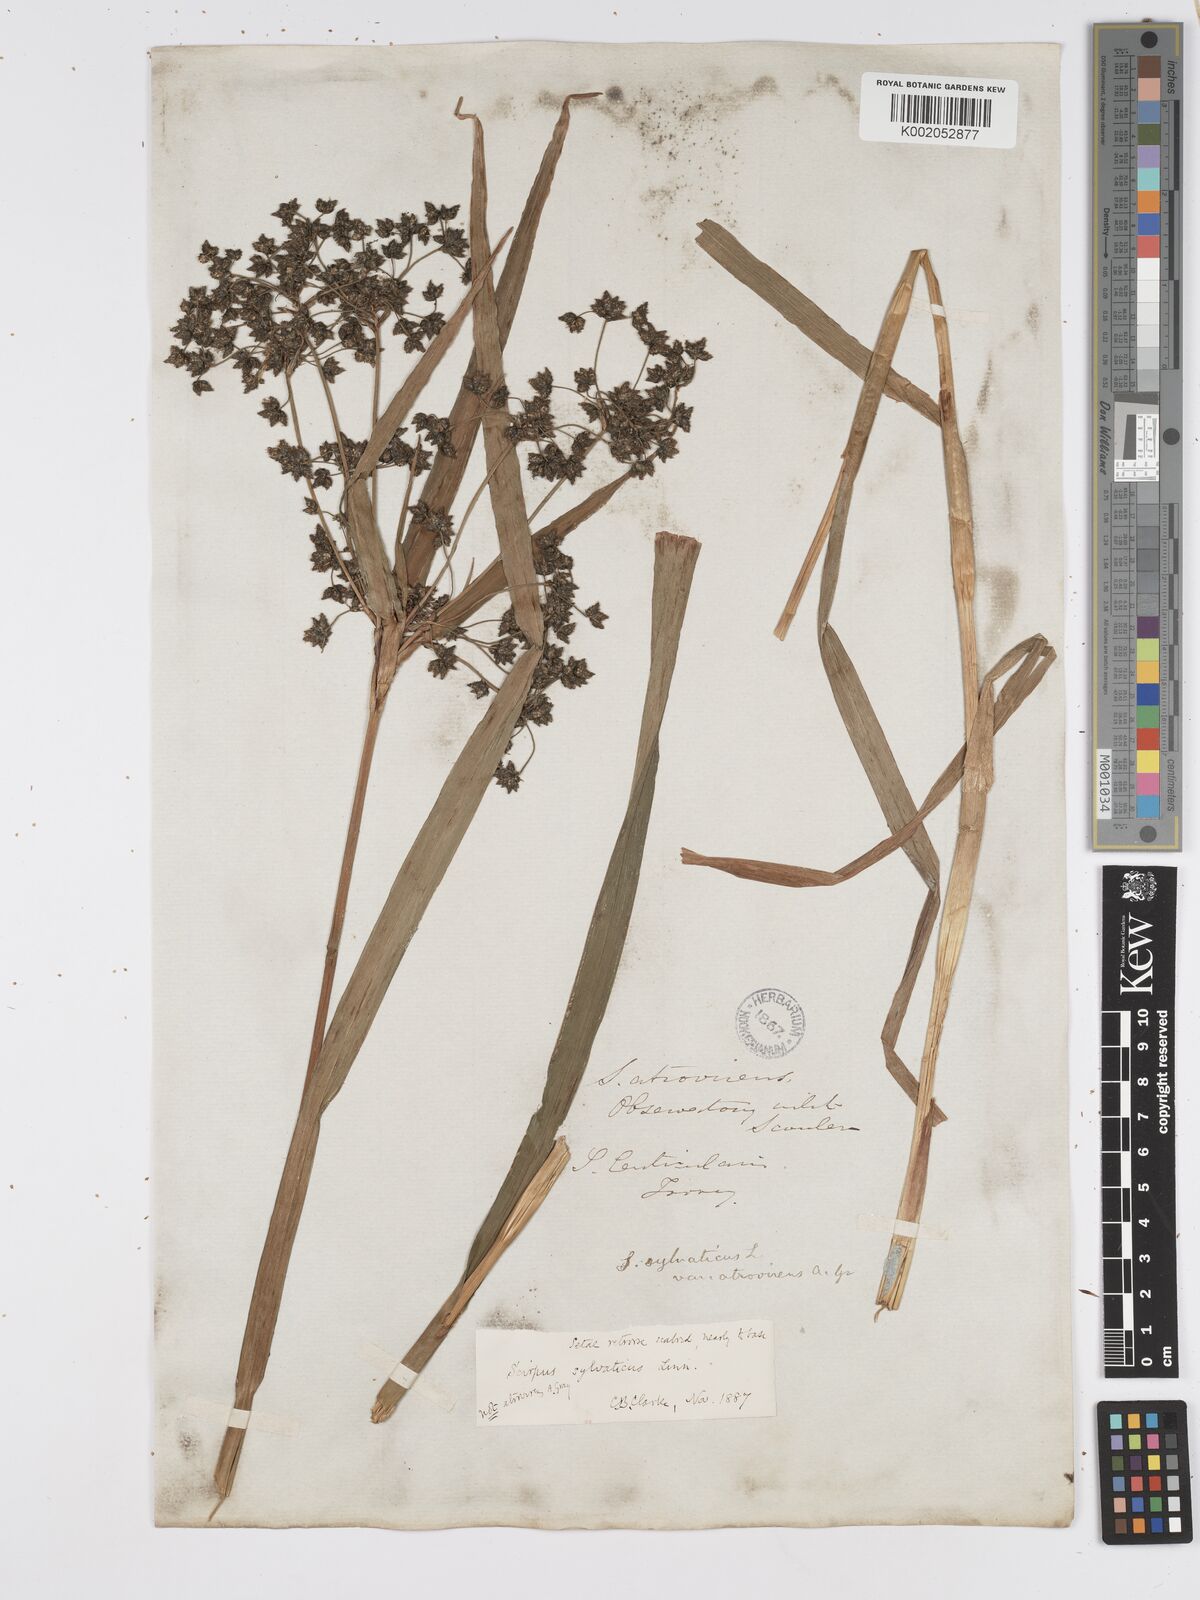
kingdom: Plantae
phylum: Tracheophyta
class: Liliopsida
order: Poales
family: Cyperaceae
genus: Scirpus
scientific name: Scirpus atrovirens
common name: Black bulrush
